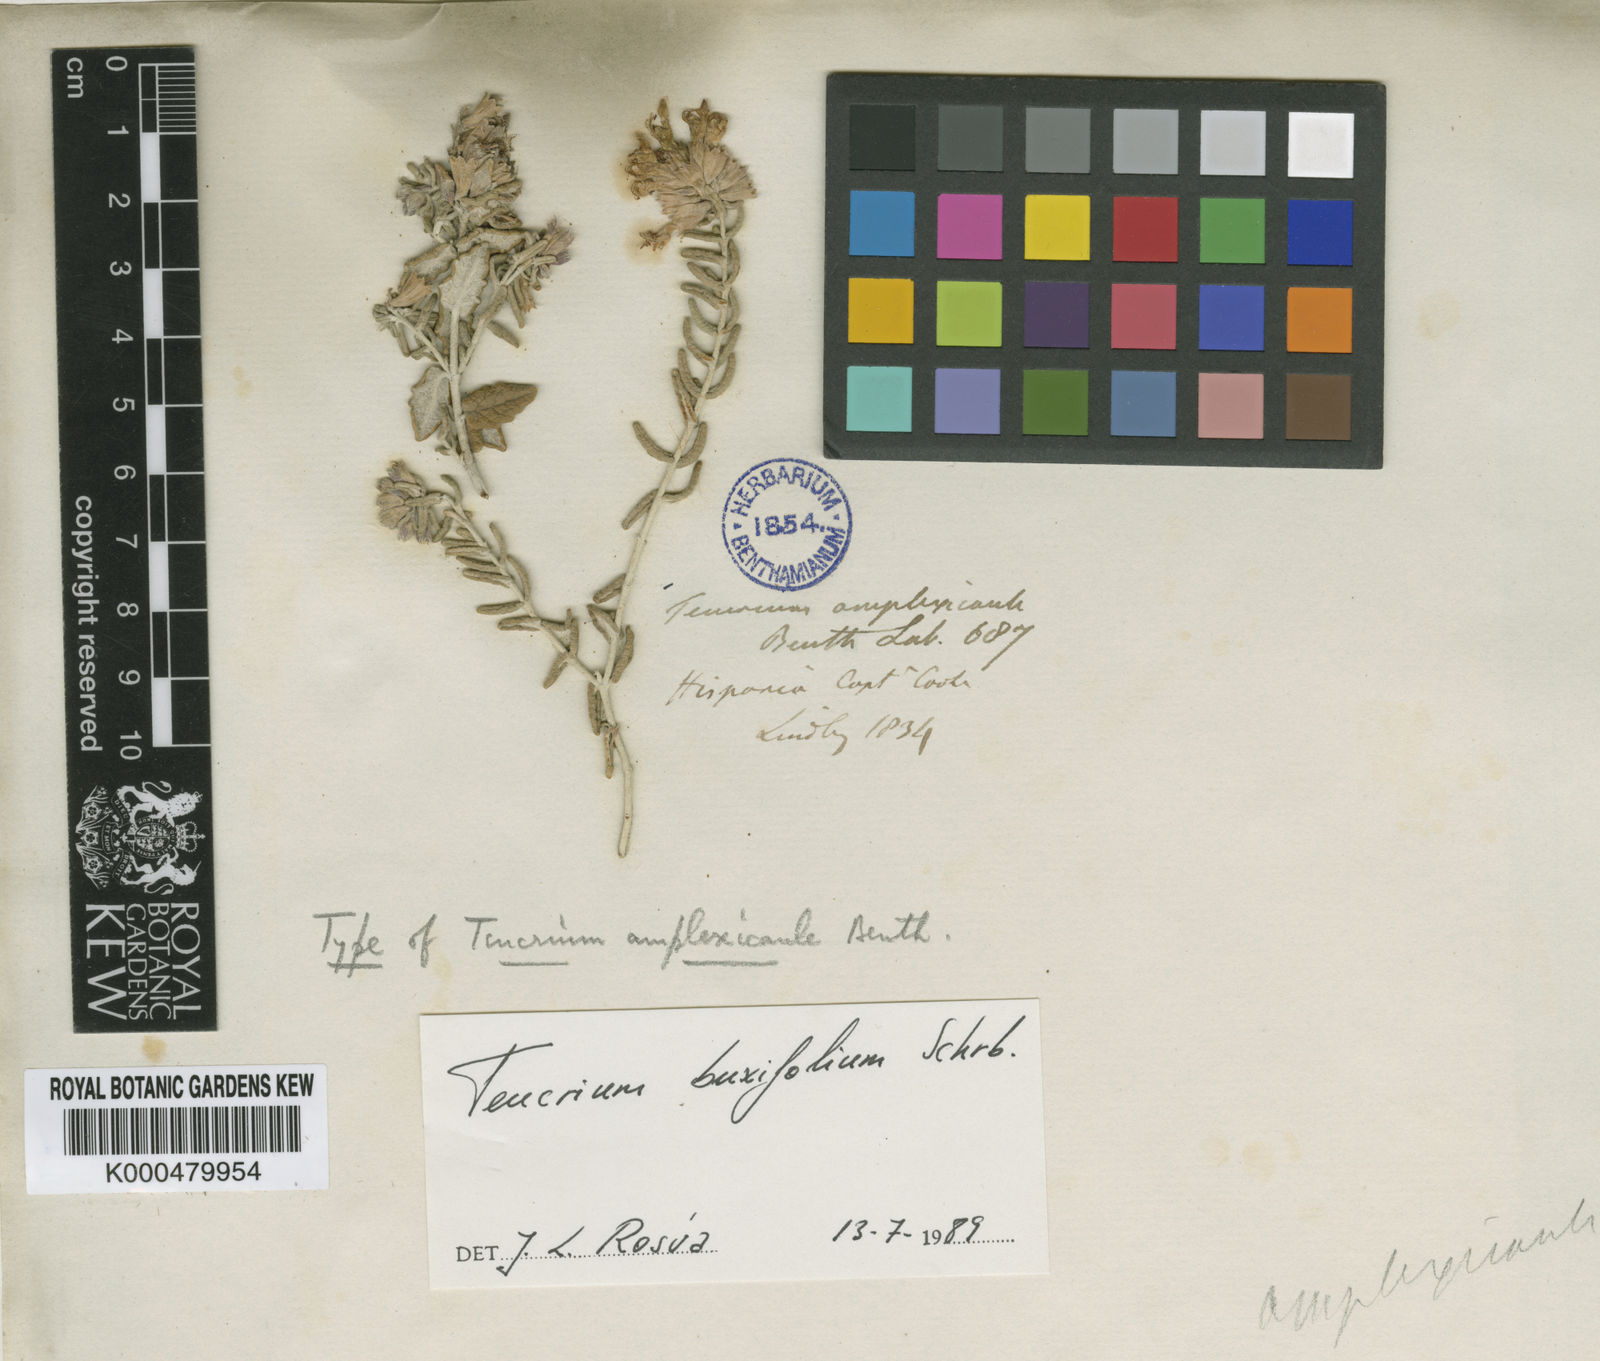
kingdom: Plantae
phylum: Tracheophyta
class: Magnoliopsida
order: Lamiales
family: Lamiaceae
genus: Teucrium
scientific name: Teucrium amplexicaule
